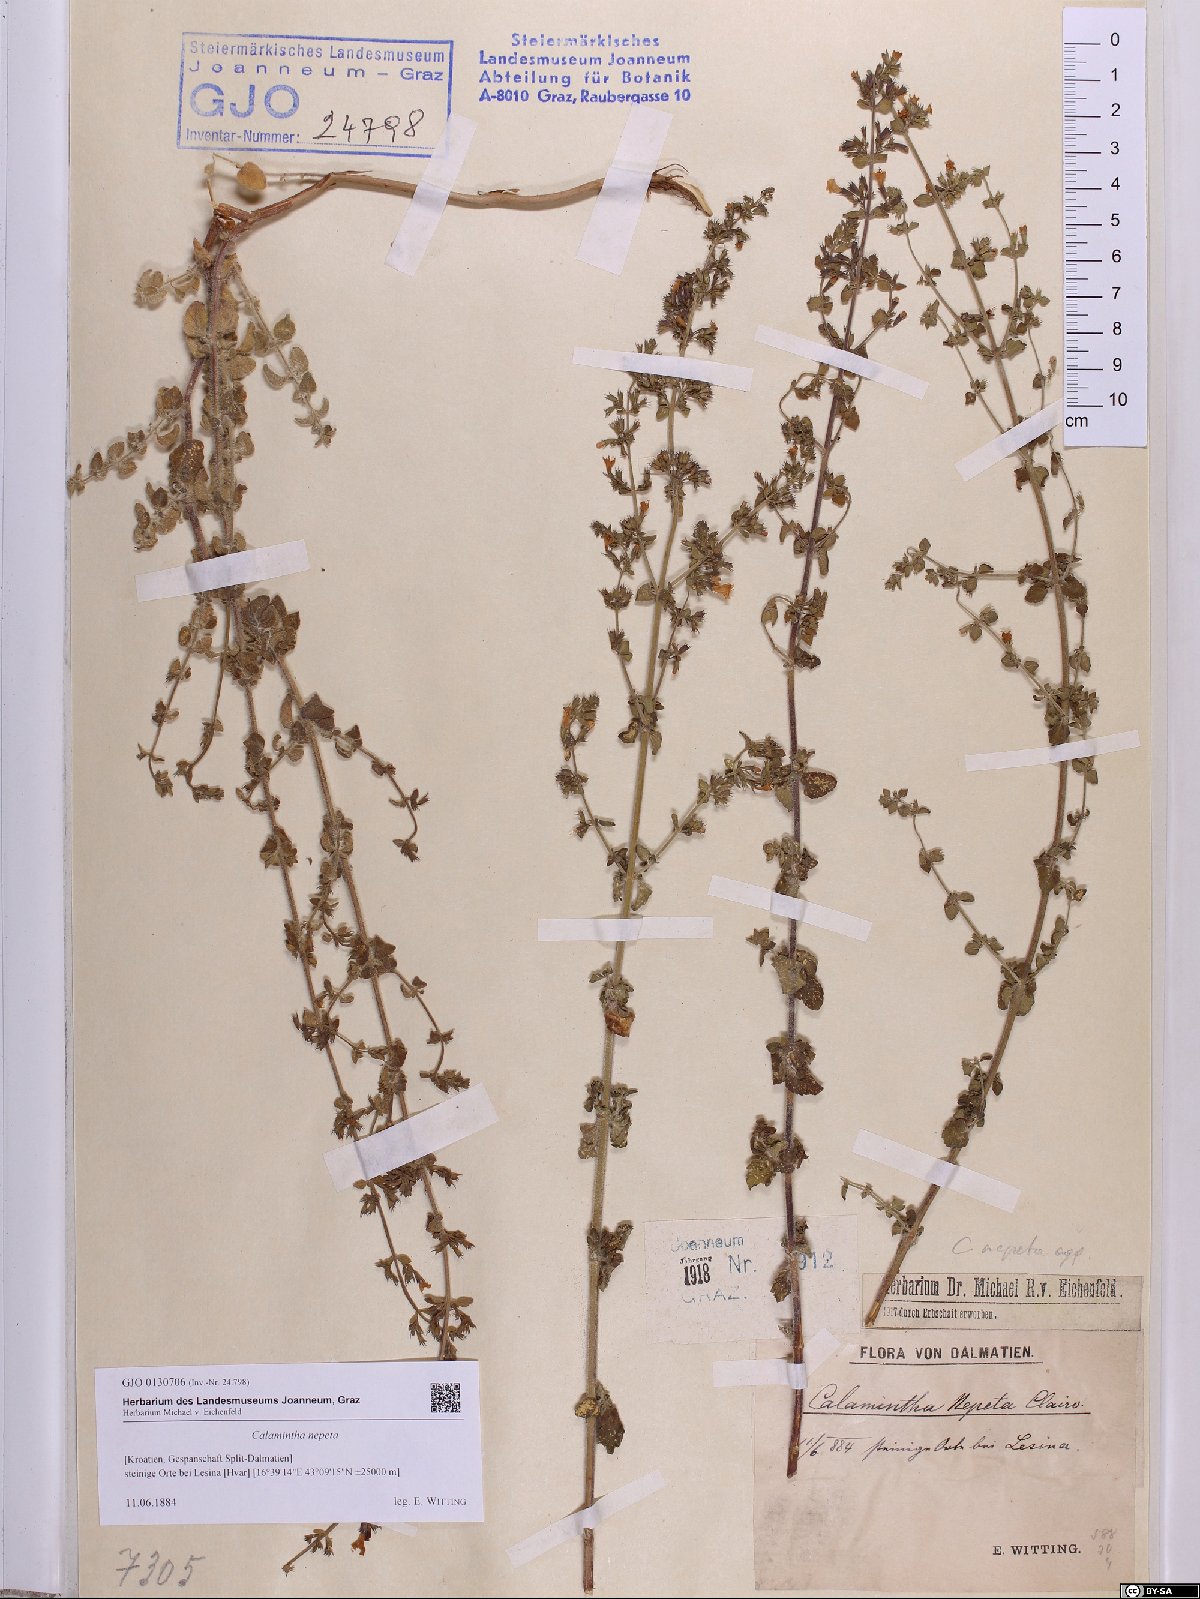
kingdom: Plantae
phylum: Tracheophyta
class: Magnoliopsida
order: Lamiales
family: Lamiaceae
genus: Clinopodium
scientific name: Clinopodium nepeta
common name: Lesser calamint
